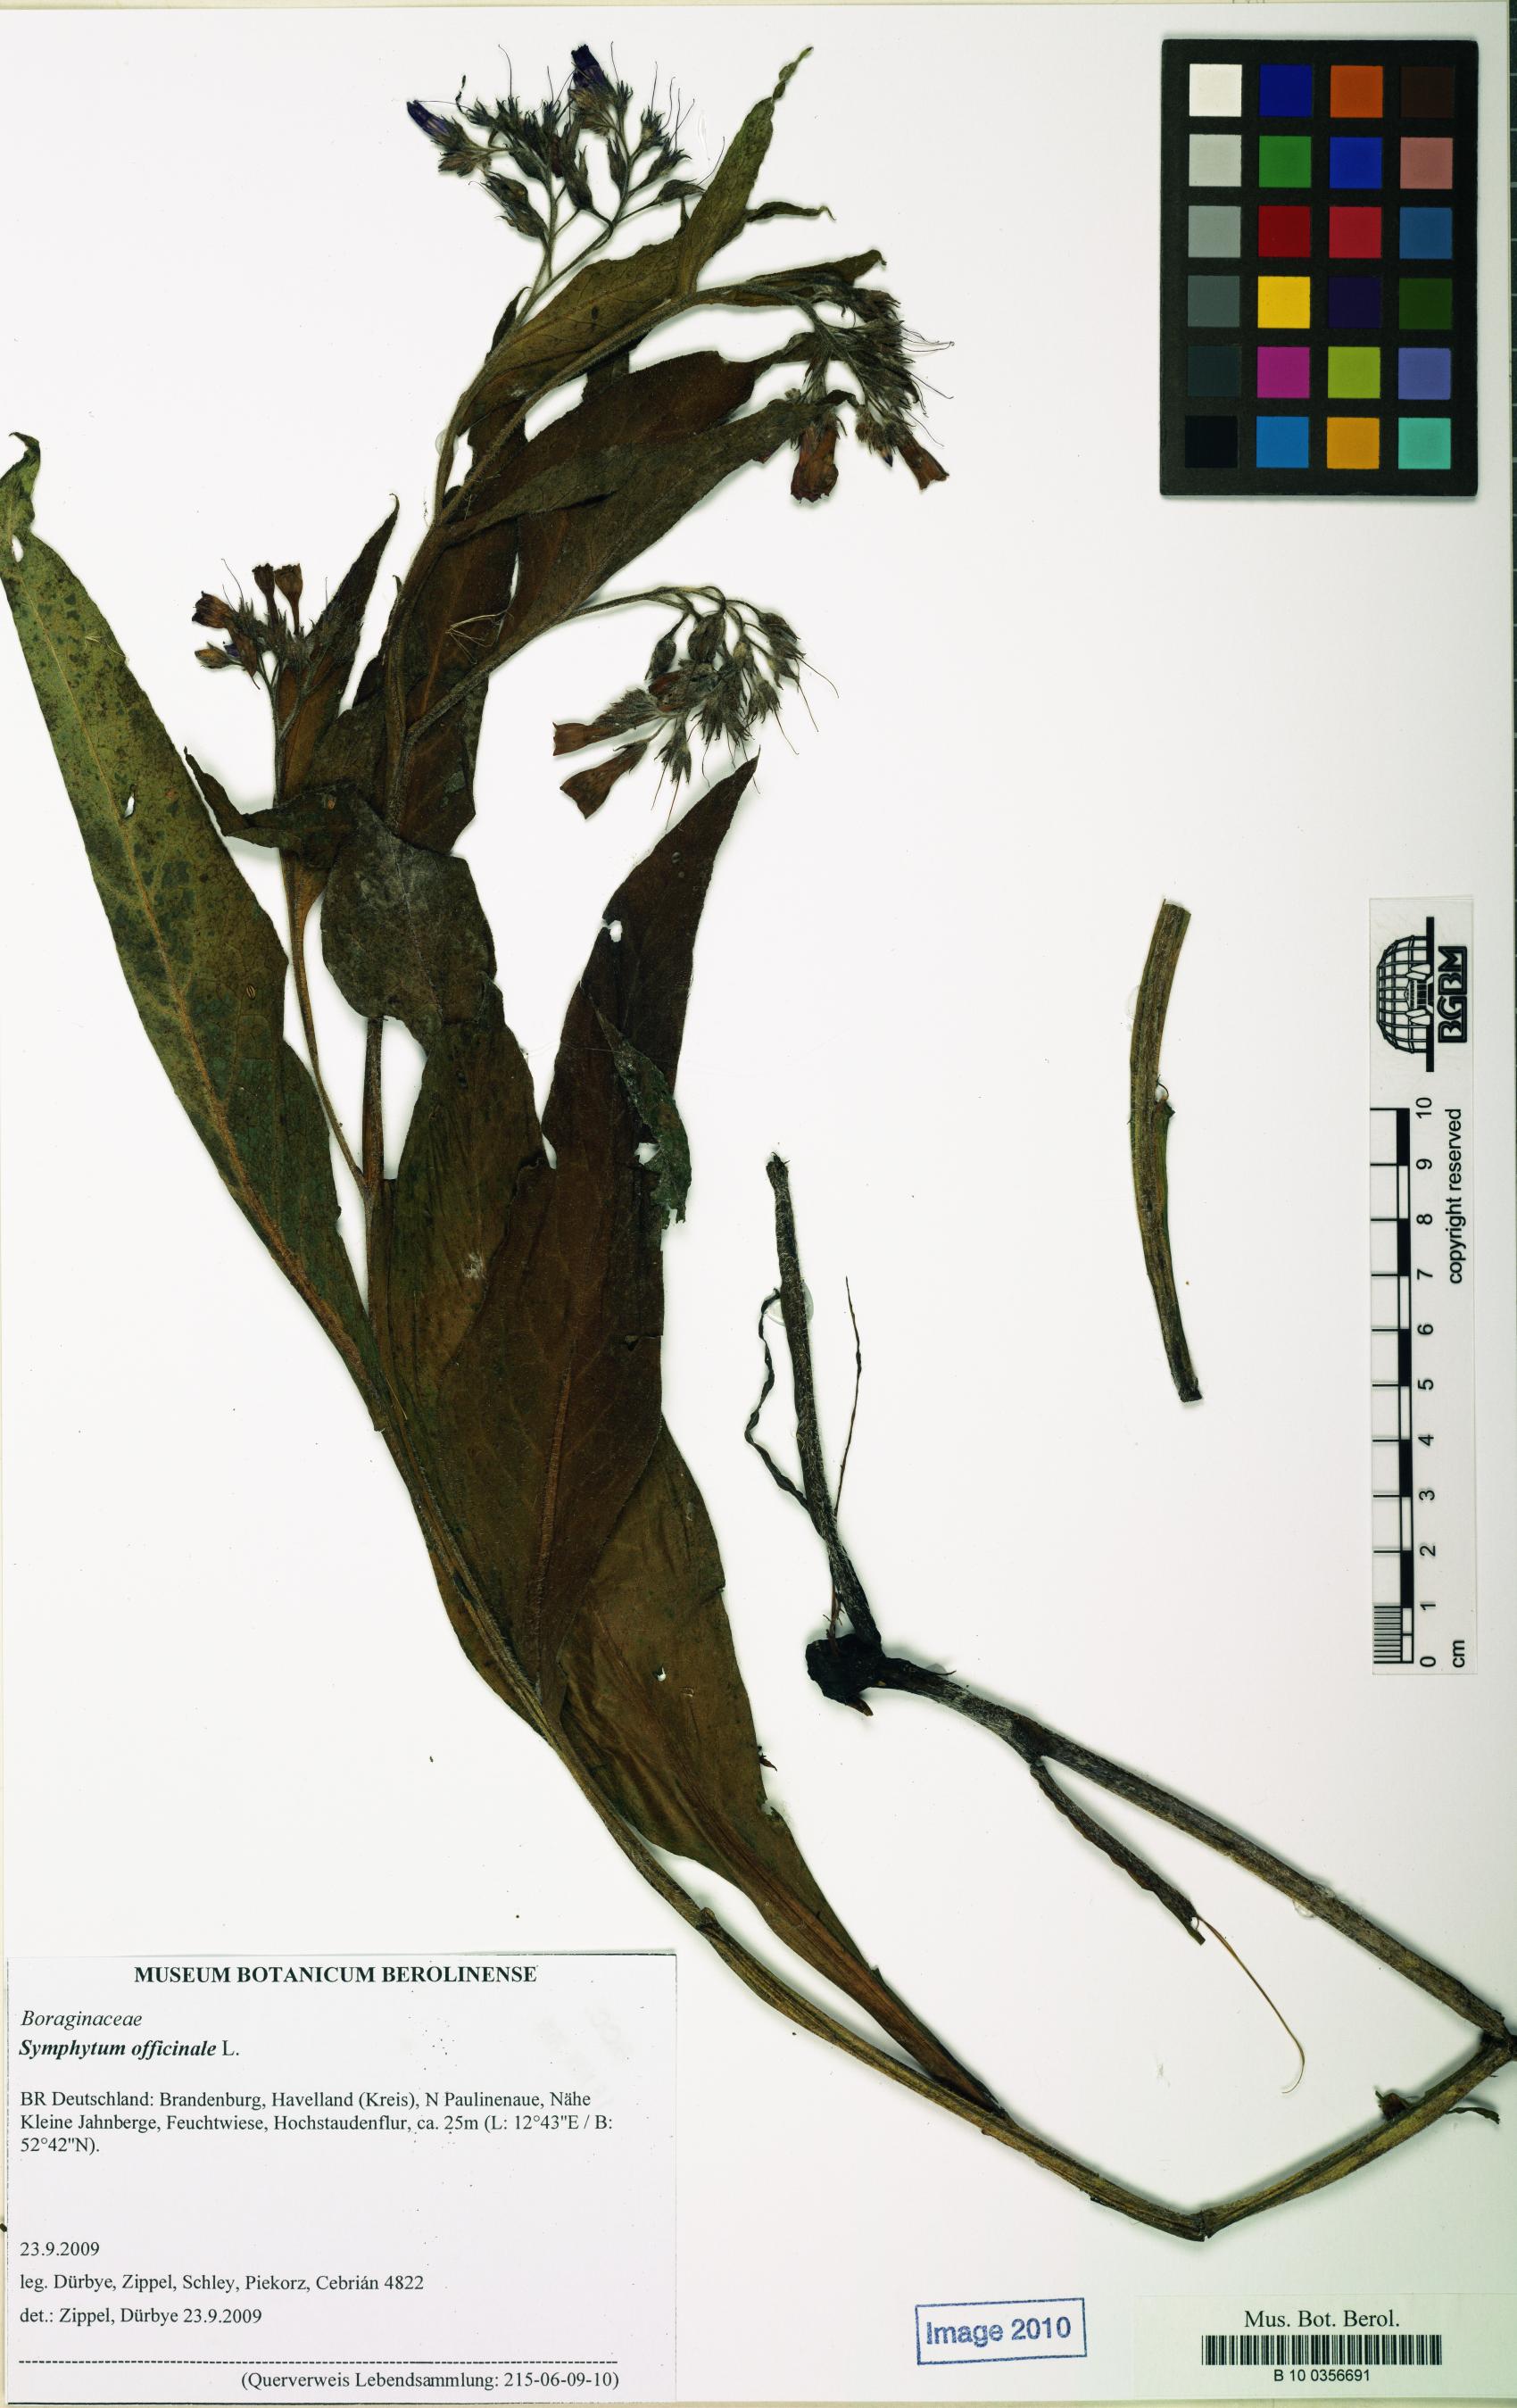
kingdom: Plantae
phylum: Tracheophyta
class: Magnoliopsida
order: Boraginales
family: Boraginaceae
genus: Symphytum
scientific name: Symphytum officinale
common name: Common comfrey
